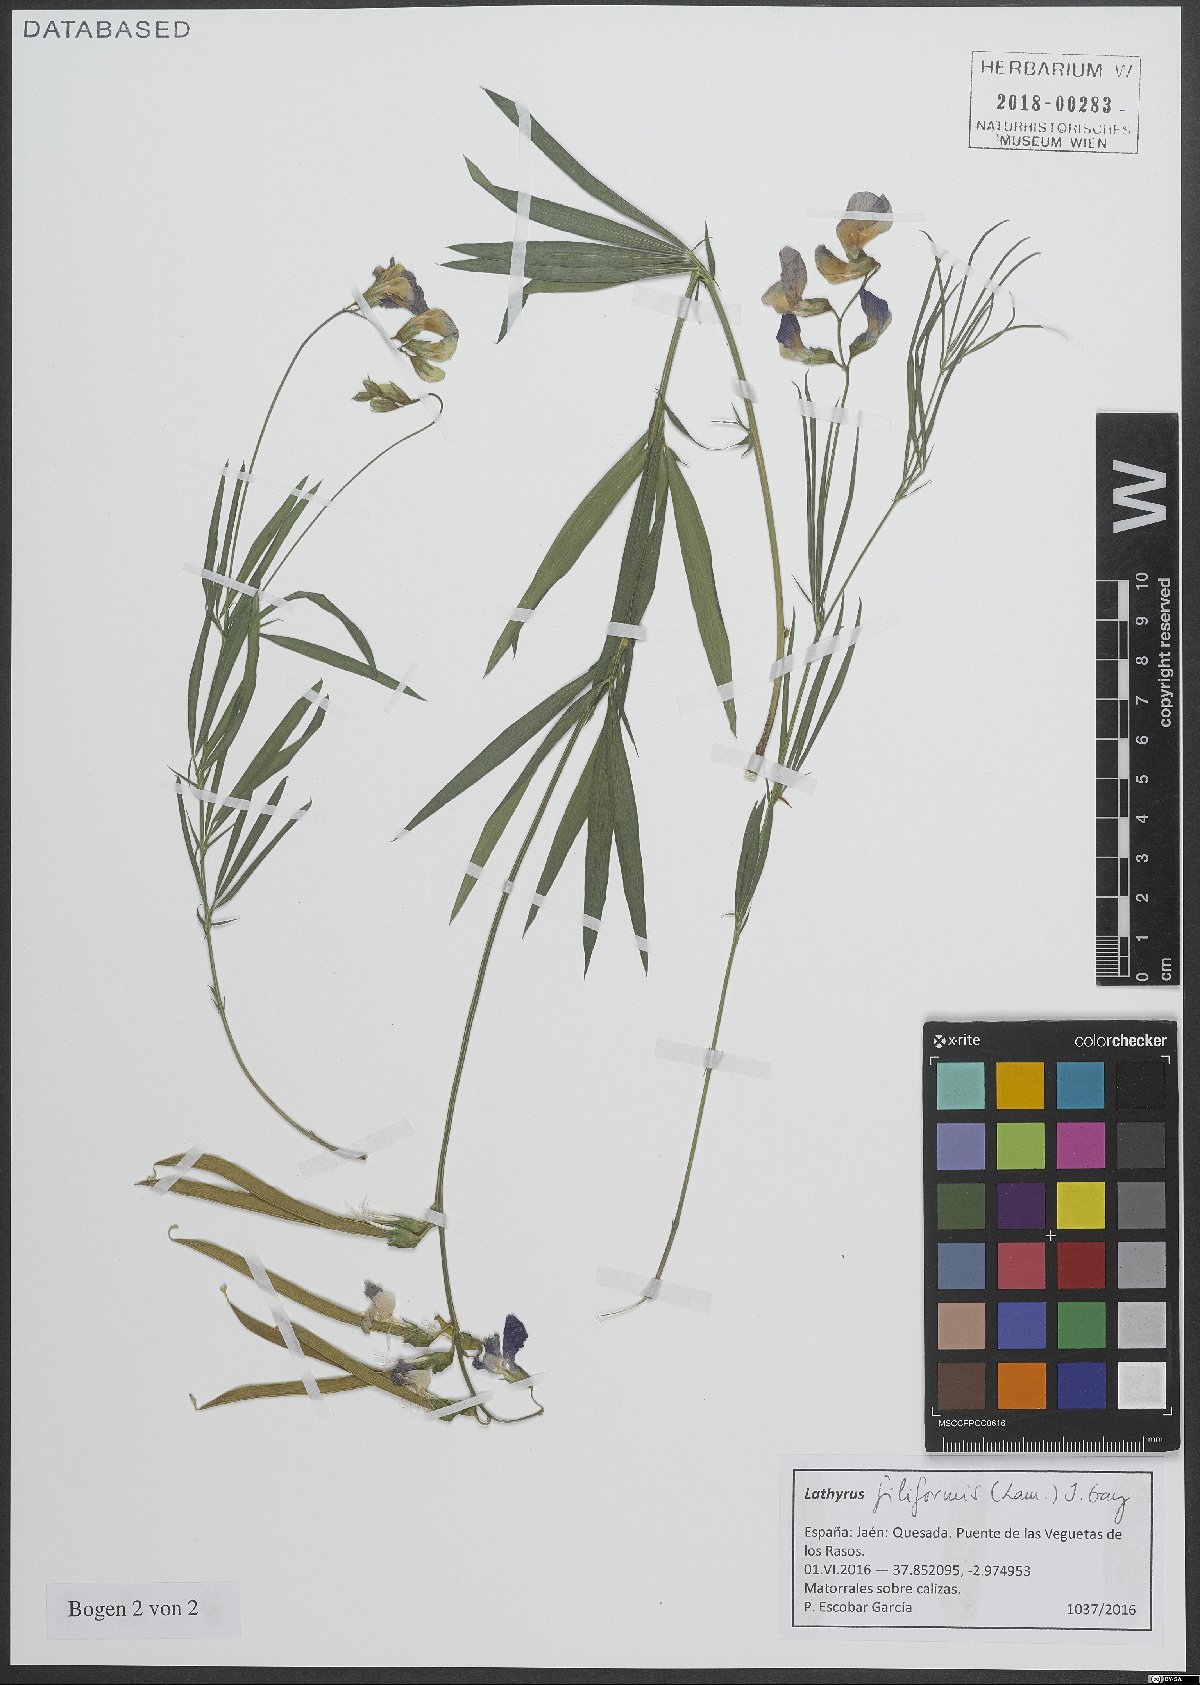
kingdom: Plantae
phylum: Tracheophyta
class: Magnoliopsida
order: Fabales
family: Fabaceae
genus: Lathyrus
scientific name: Lathyrus filiformis
